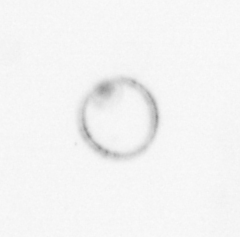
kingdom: Chromista
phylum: Myzozoa
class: Dinophyceae
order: Noctilucales
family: Noctilucaceae
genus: Noctiluca
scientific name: Noctiluca scintillans
